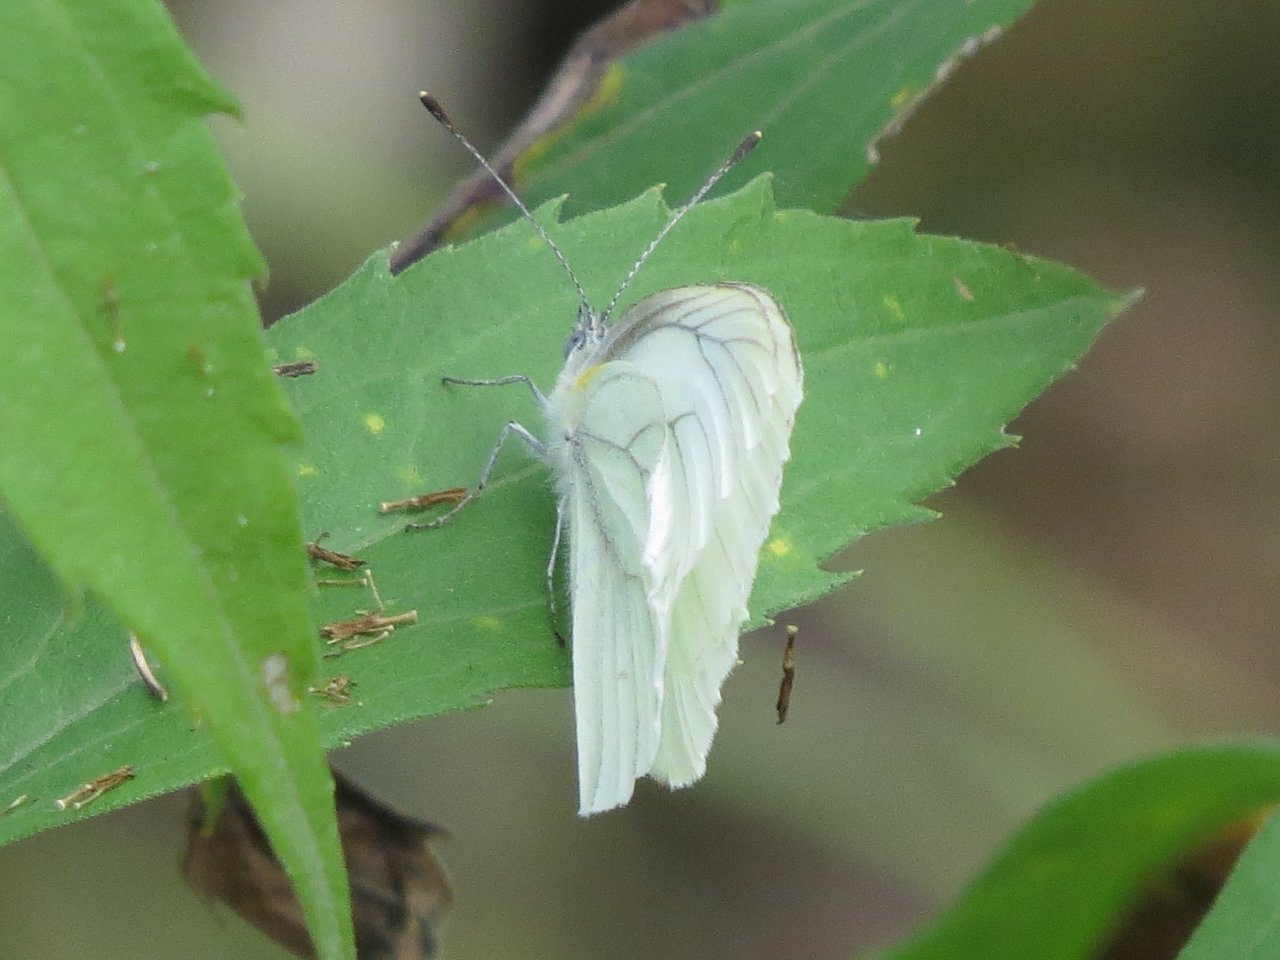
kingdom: Animalia
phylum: Arthropoda
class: Insecta
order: Lepidoptera
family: Pieridae
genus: Pieris
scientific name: Pieris oleracea
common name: Mustard White
